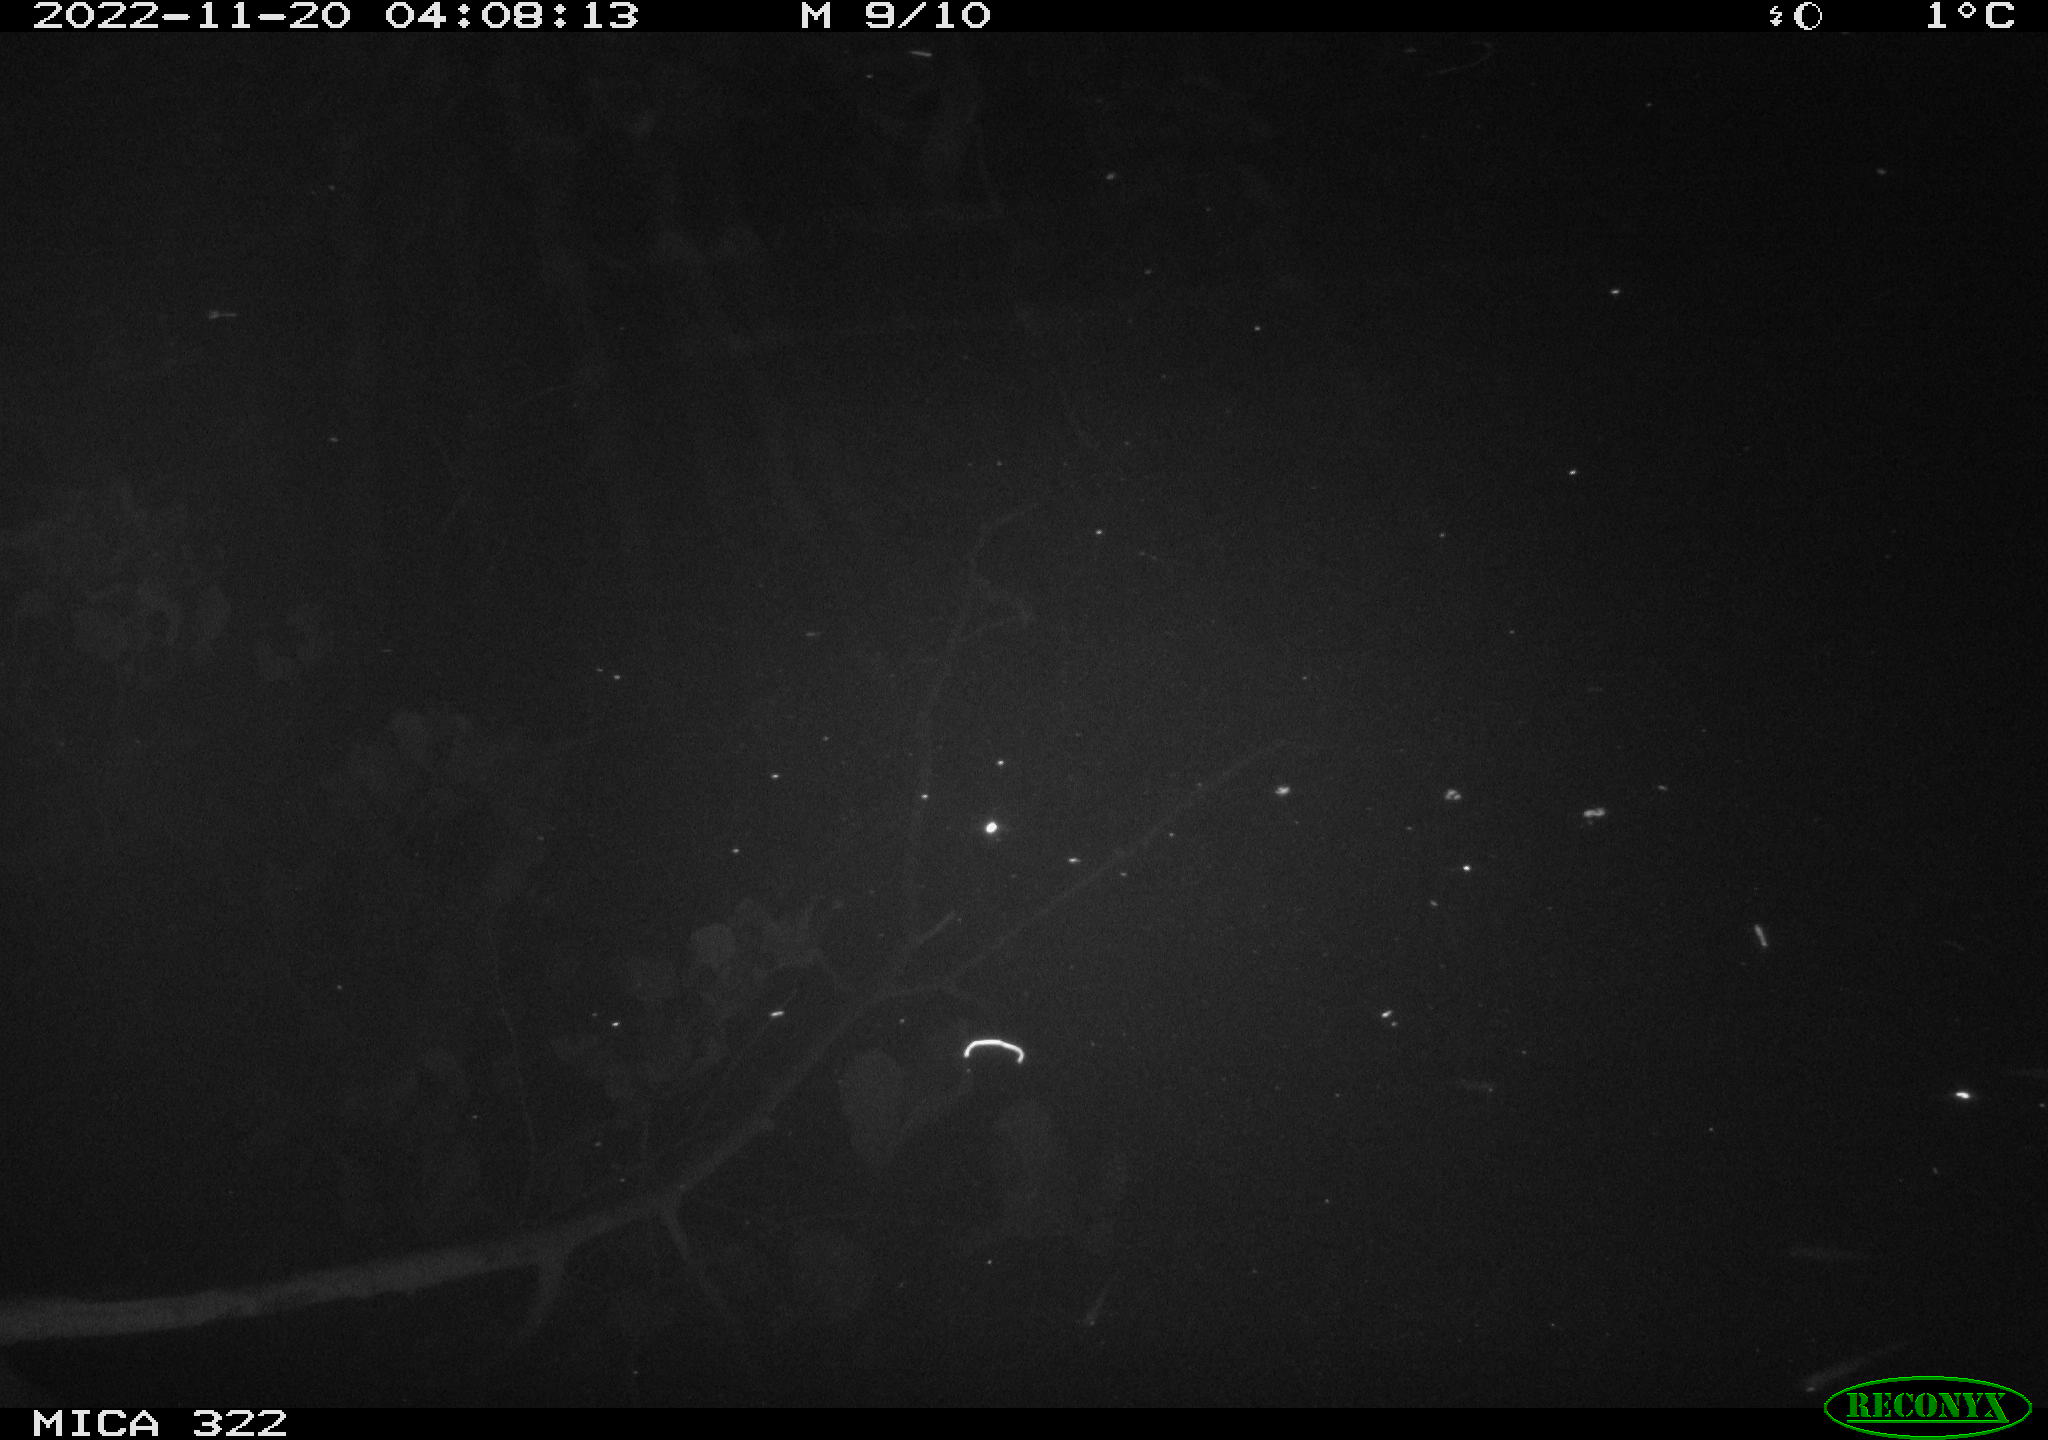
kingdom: Animalia
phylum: Chordata
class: Mammalia
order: Rodentia
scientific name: Rodentia
